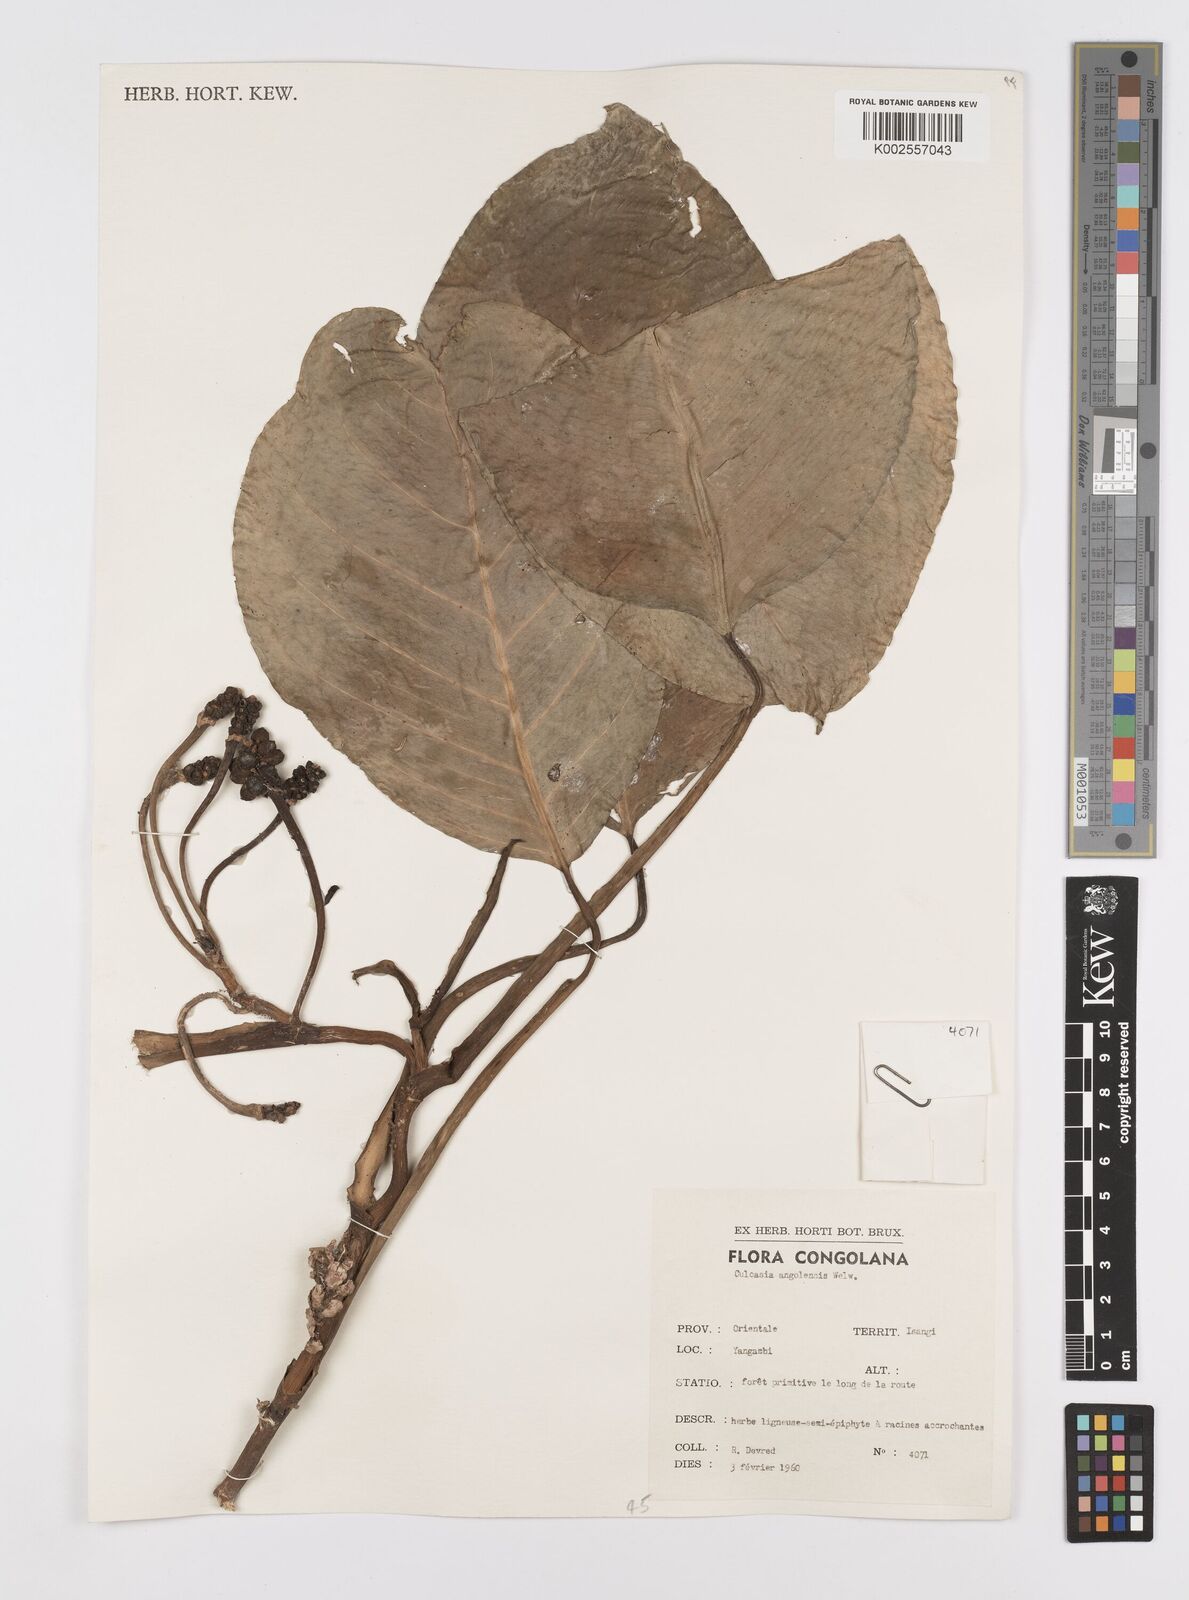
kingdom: Plantae
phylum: Tracheophyta
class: Liliopsida
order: Alismatales
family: Araceae
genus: Culcasia
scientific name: Culcasia angolensis
